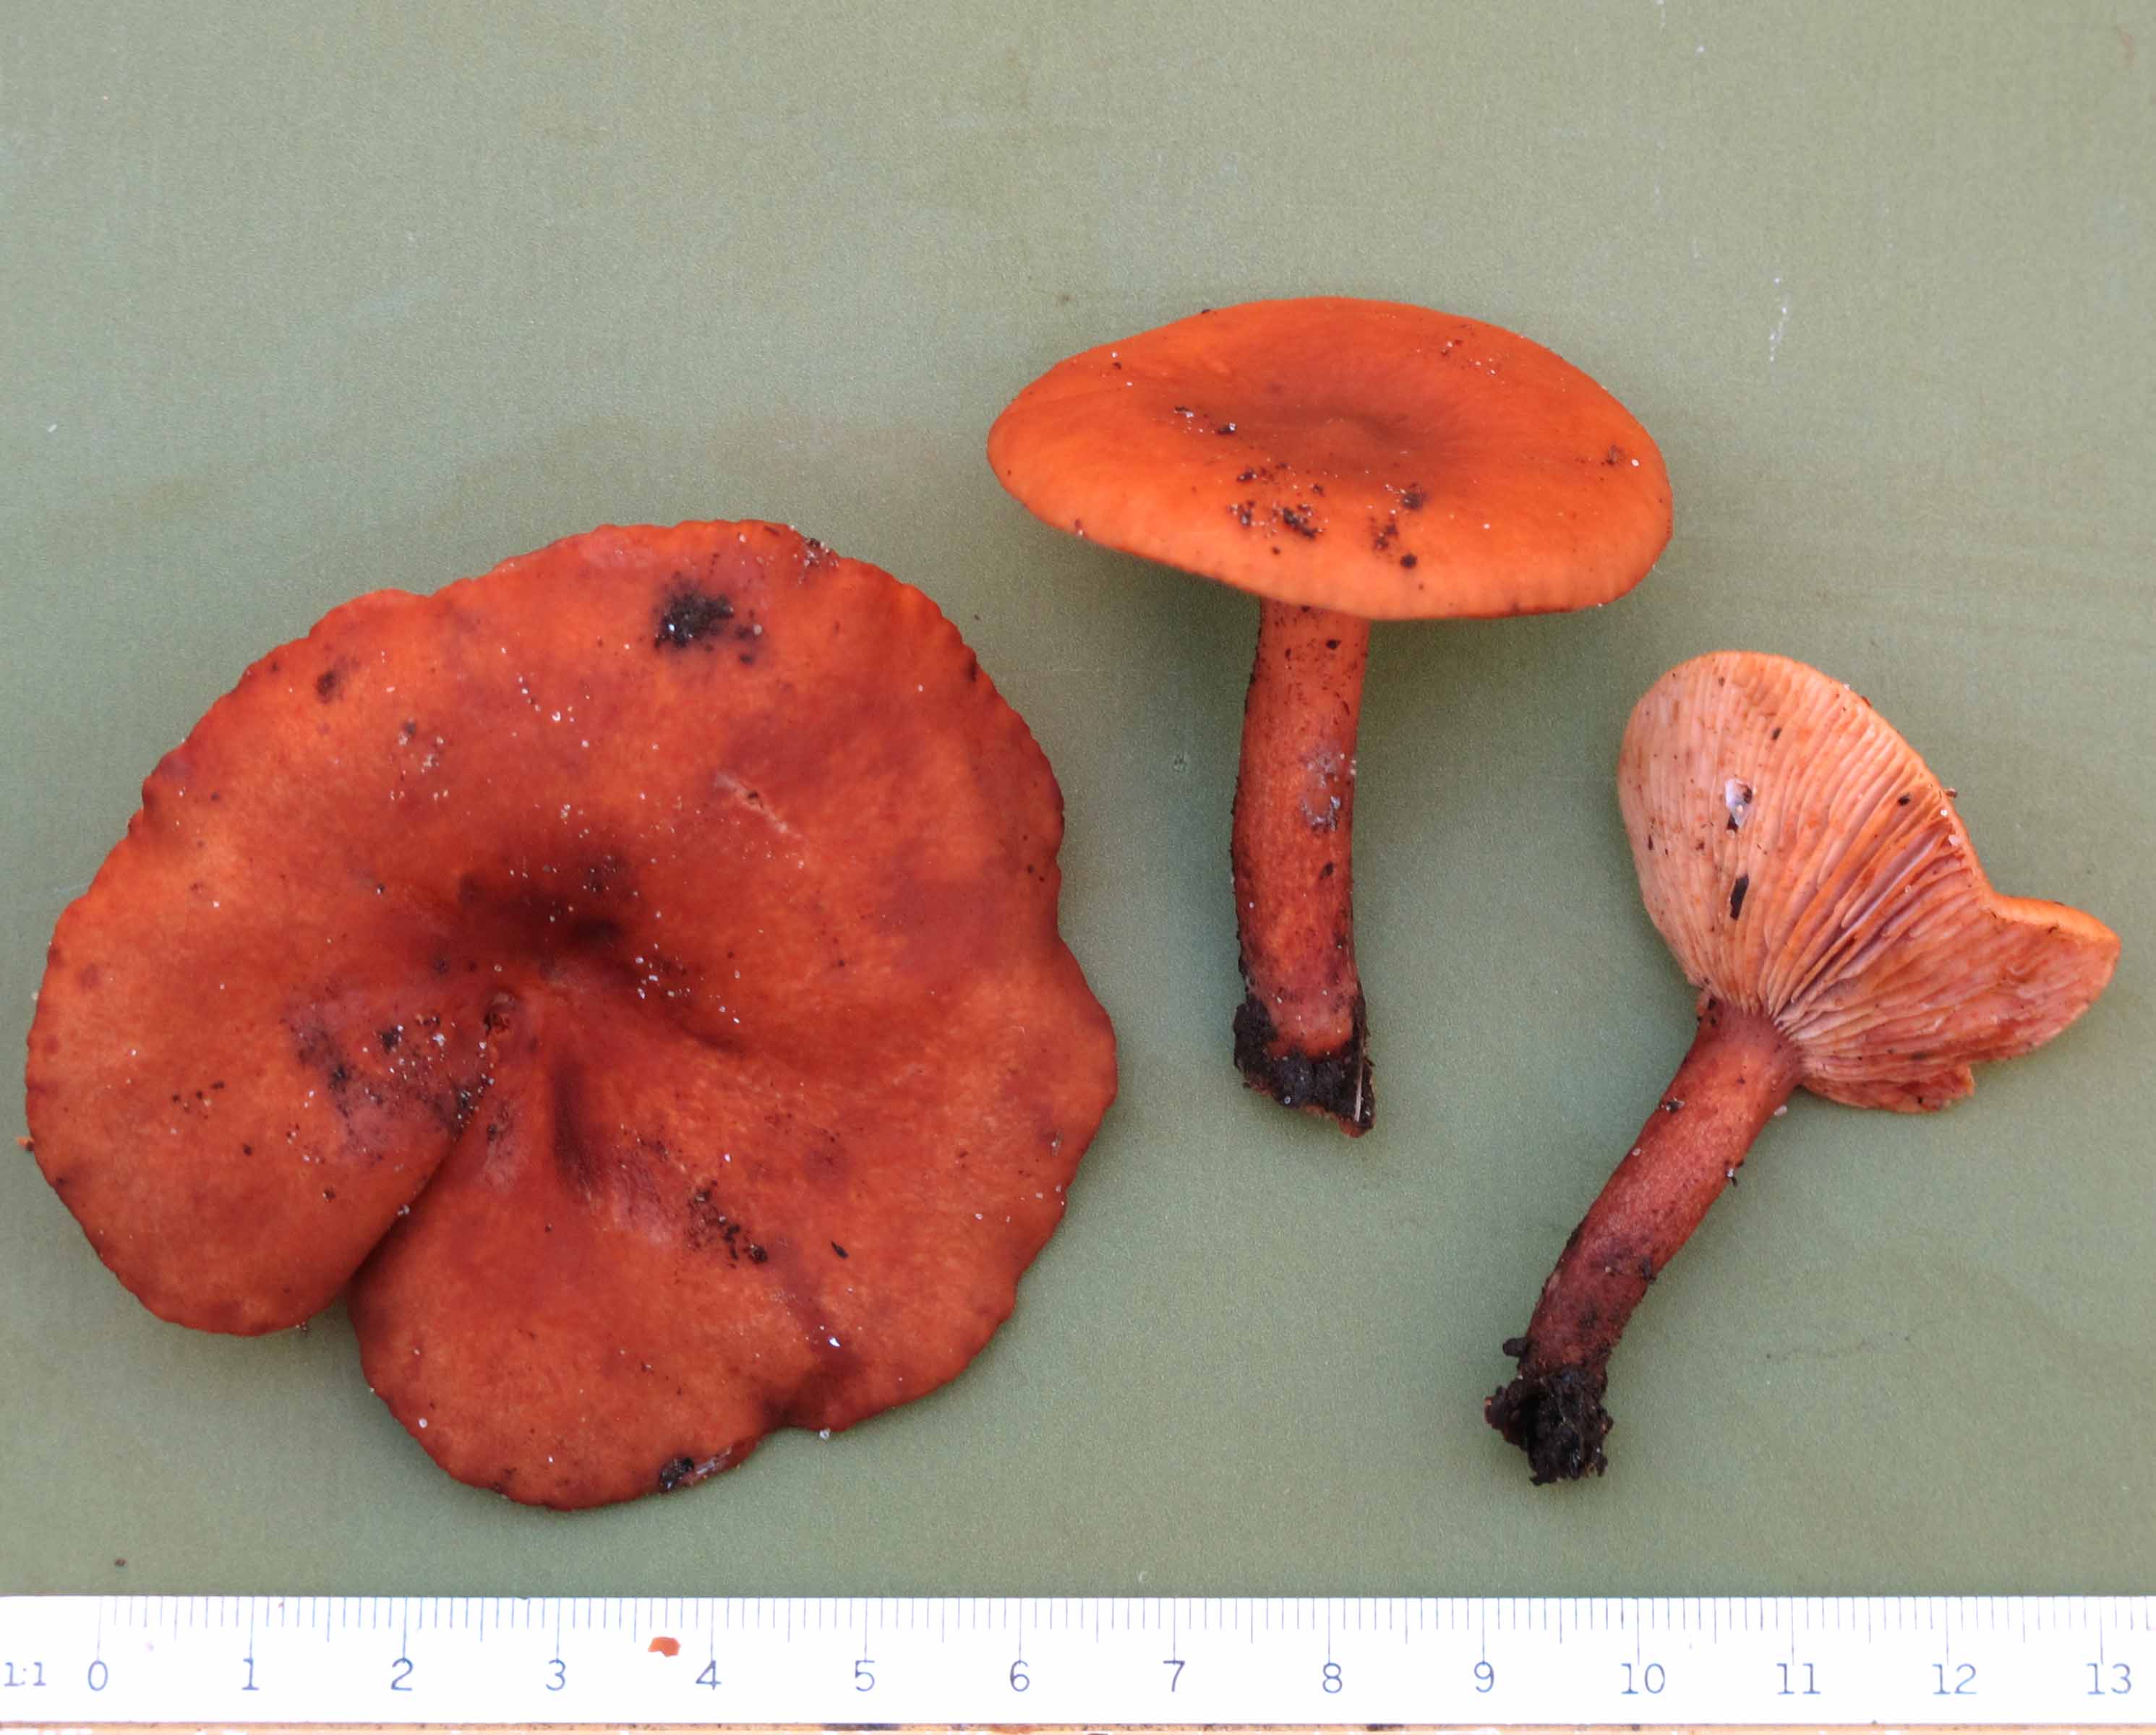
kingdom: Fungi
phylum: Basidiomycota
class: Agaricomycetes
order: Russulales
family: Russulaceae
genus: Lactarius
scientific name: Lactarius lacunarum
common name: sump-mælkehat
